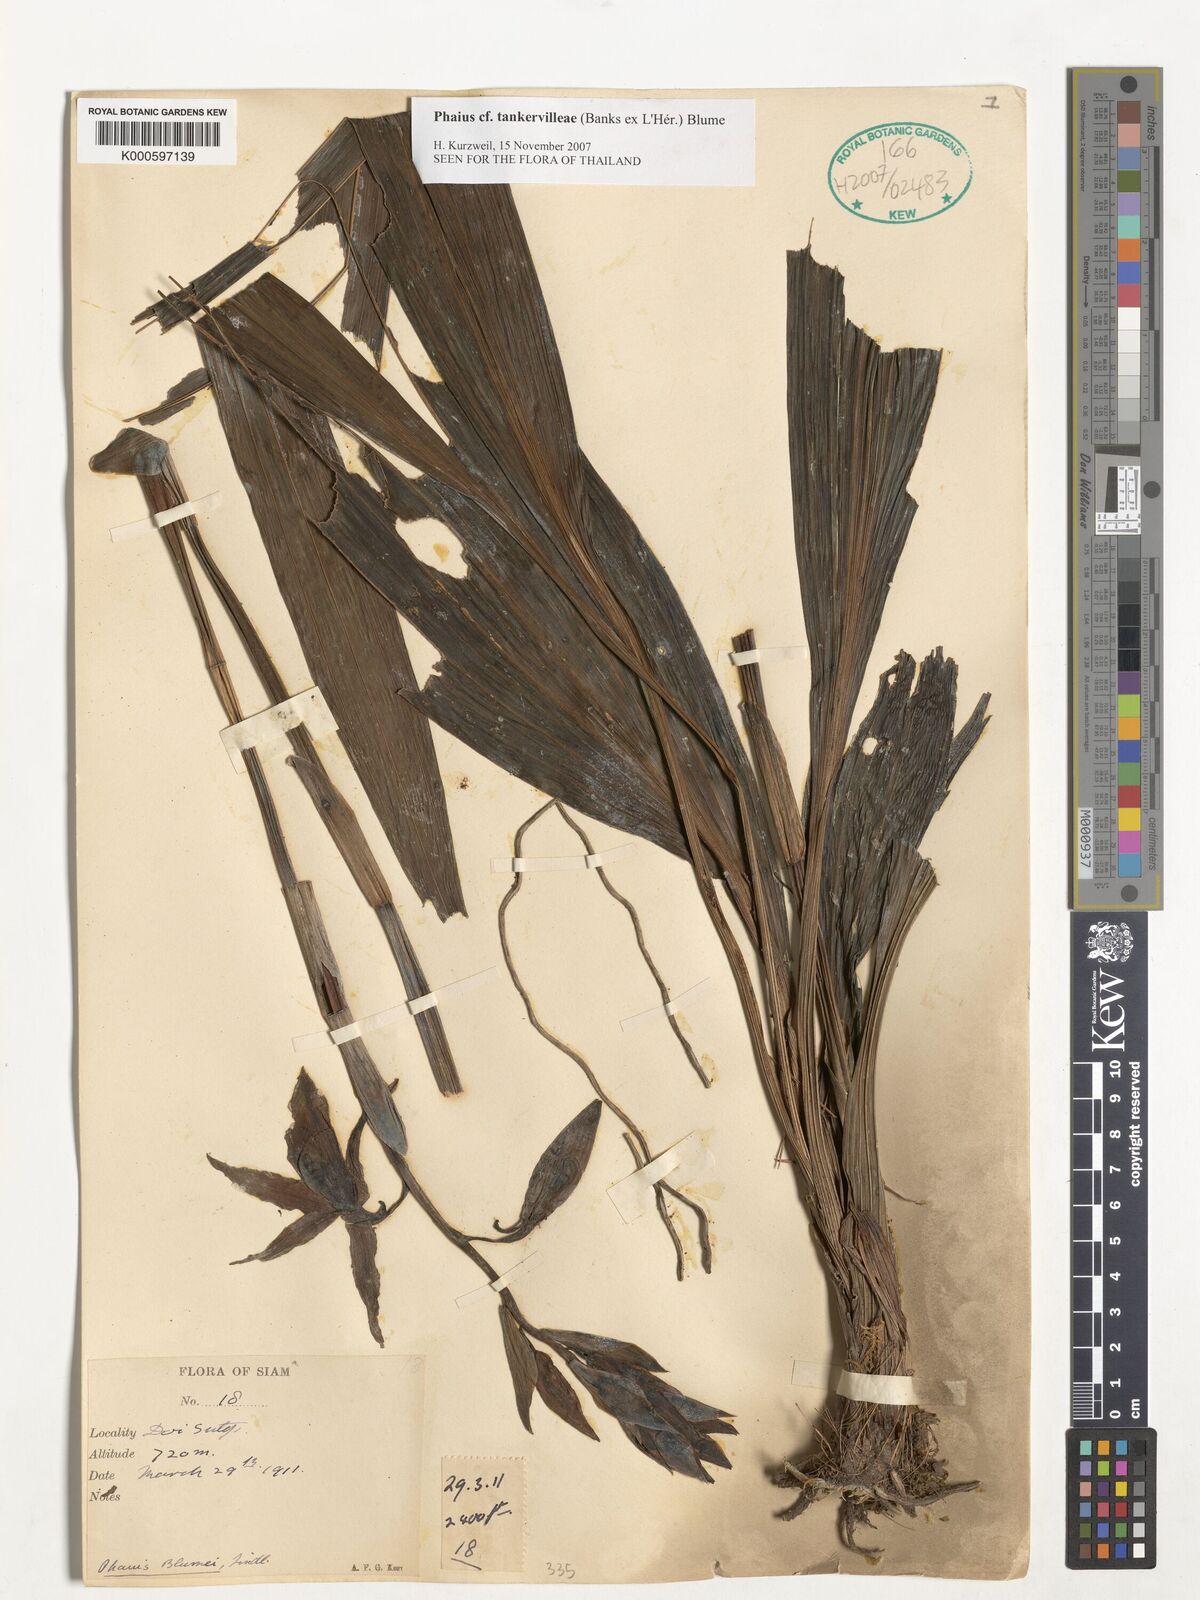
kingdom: Plantae
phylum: Tracheophyta
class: Liliopsida
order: Asparagales
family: Orchidaceae
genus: Calanthe
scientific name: Calanthe
